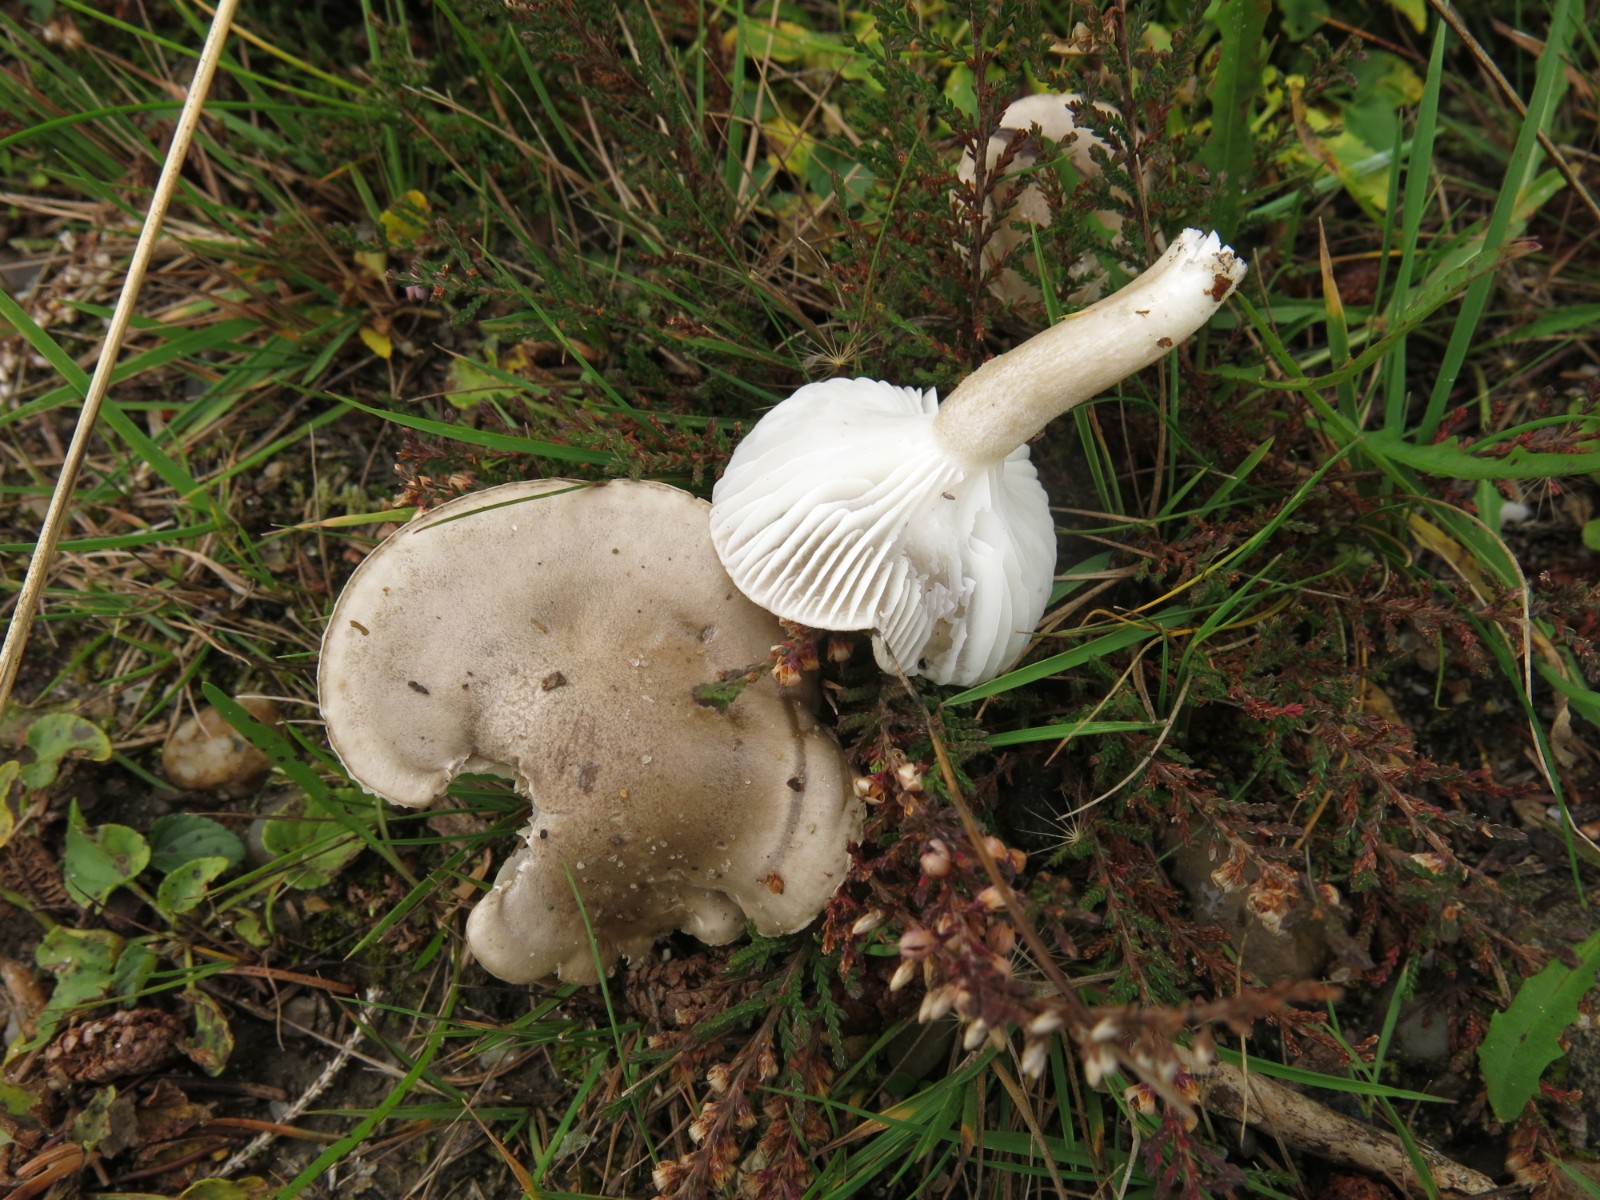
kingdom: Fungi
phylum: Basidiomycota
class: Agaricomycetes
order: Agaricales
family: Hygrophoraceae
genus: Hygrophorus
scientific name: Hygrophorus agathosmus
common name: vellugtende sneglehat
